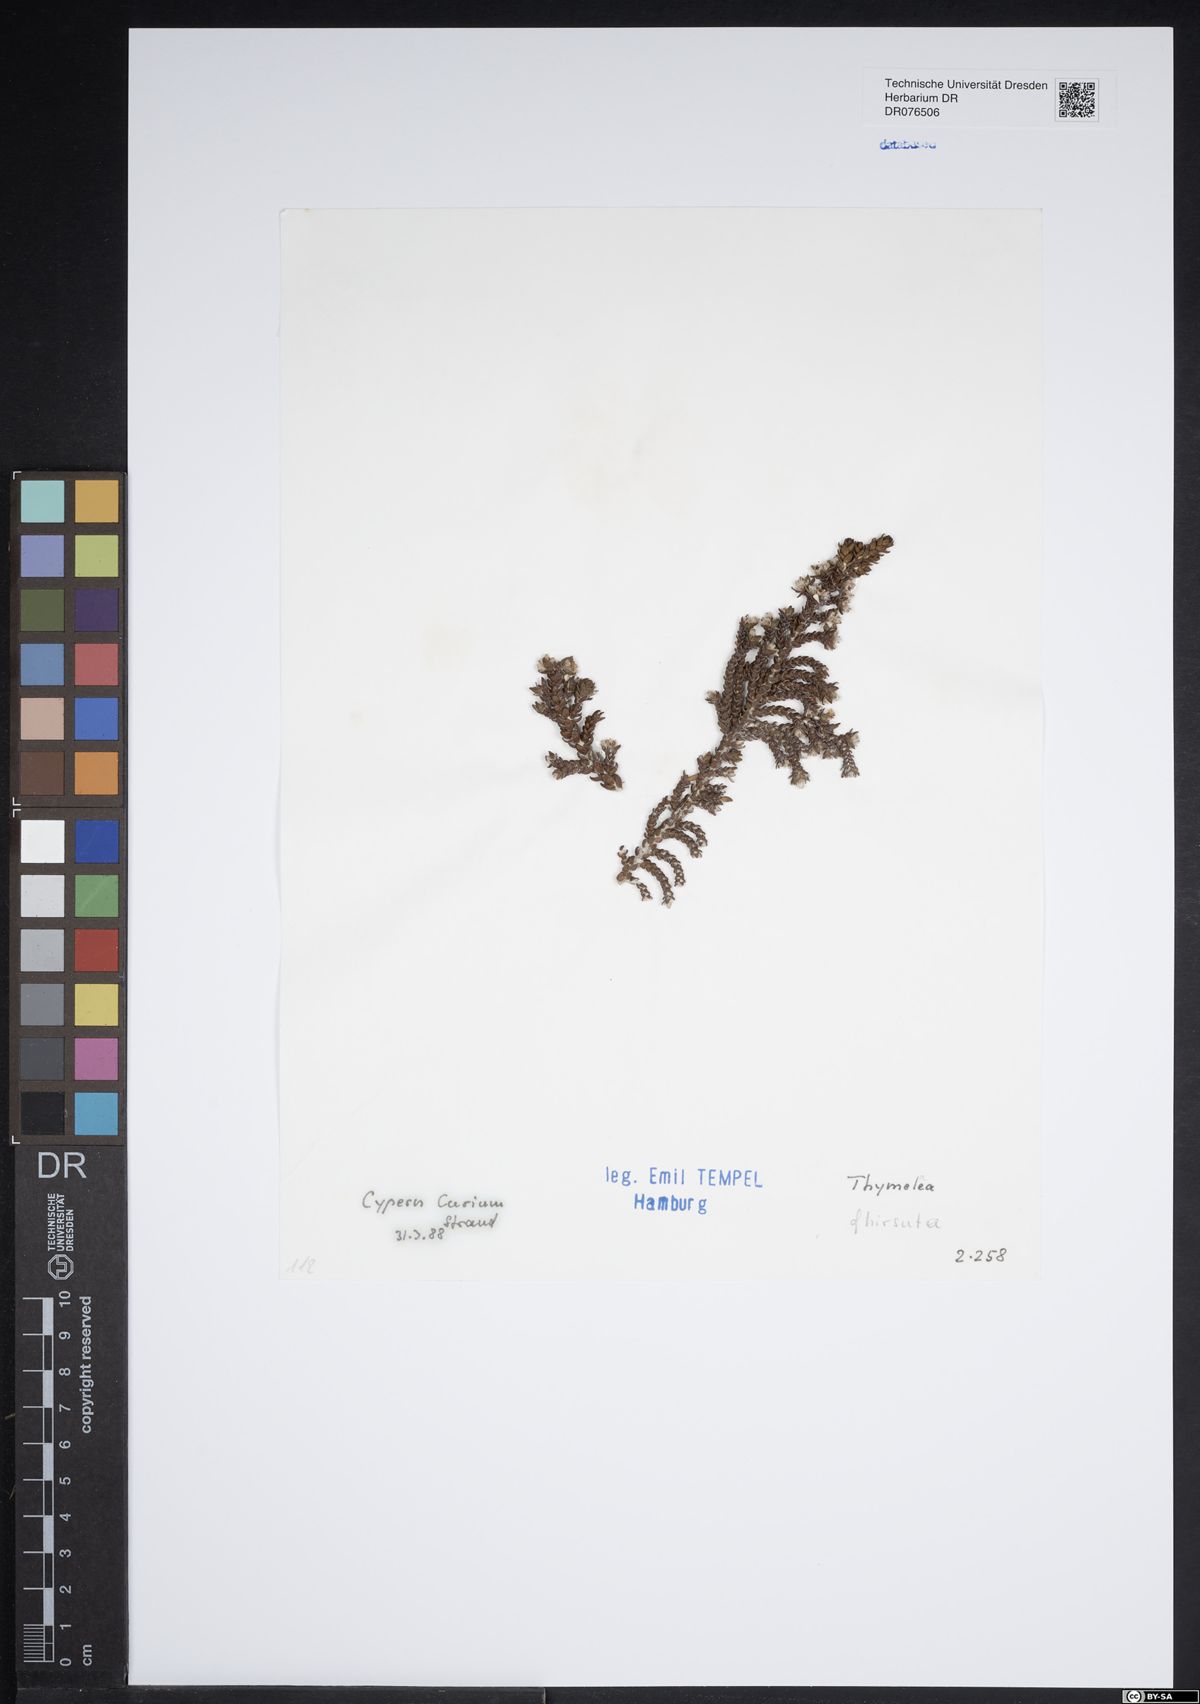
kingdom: Plantae
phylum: Tracheophyta
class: Magnoliopsida
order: Malvales
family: Thymelaeaceae
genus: Thymelaea
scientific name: Thymelaea hirsuta
